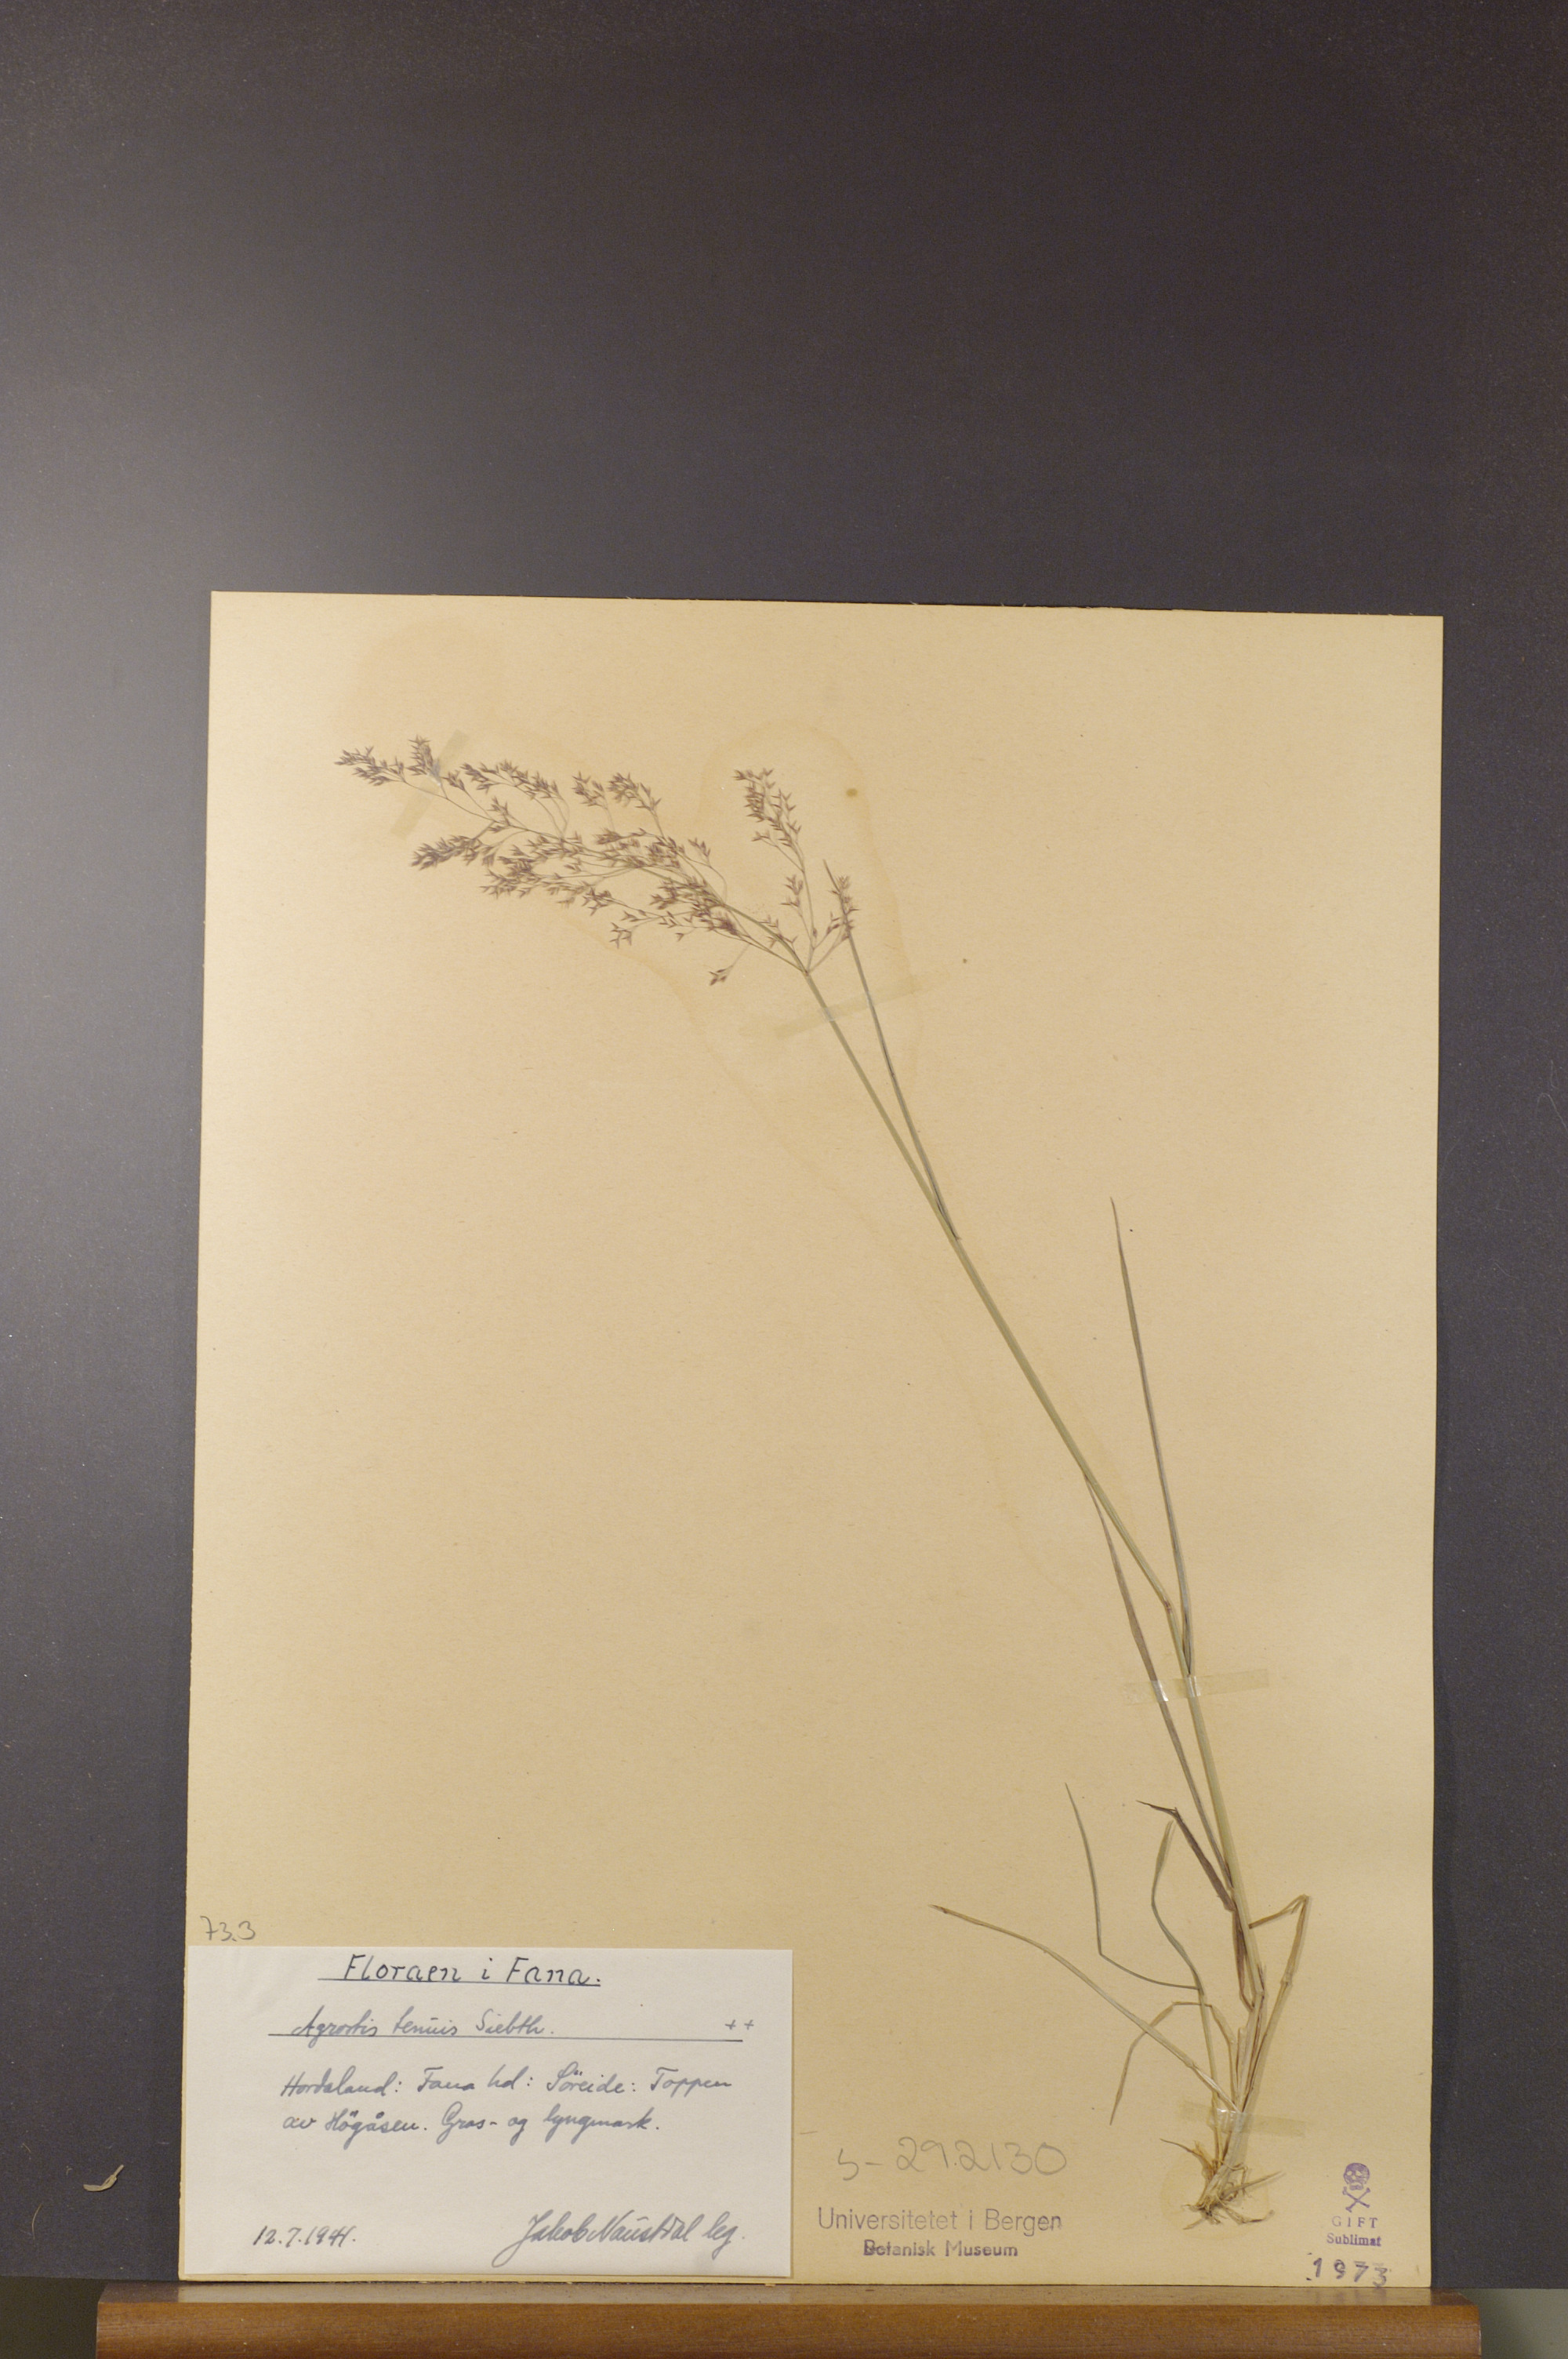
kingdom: Plantae
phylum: Tracheophyta
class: Liliopsida
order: Poales
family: Poaceae
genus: Agrostis
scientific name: Agrostis capillaris
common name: Colonial bentgrass
